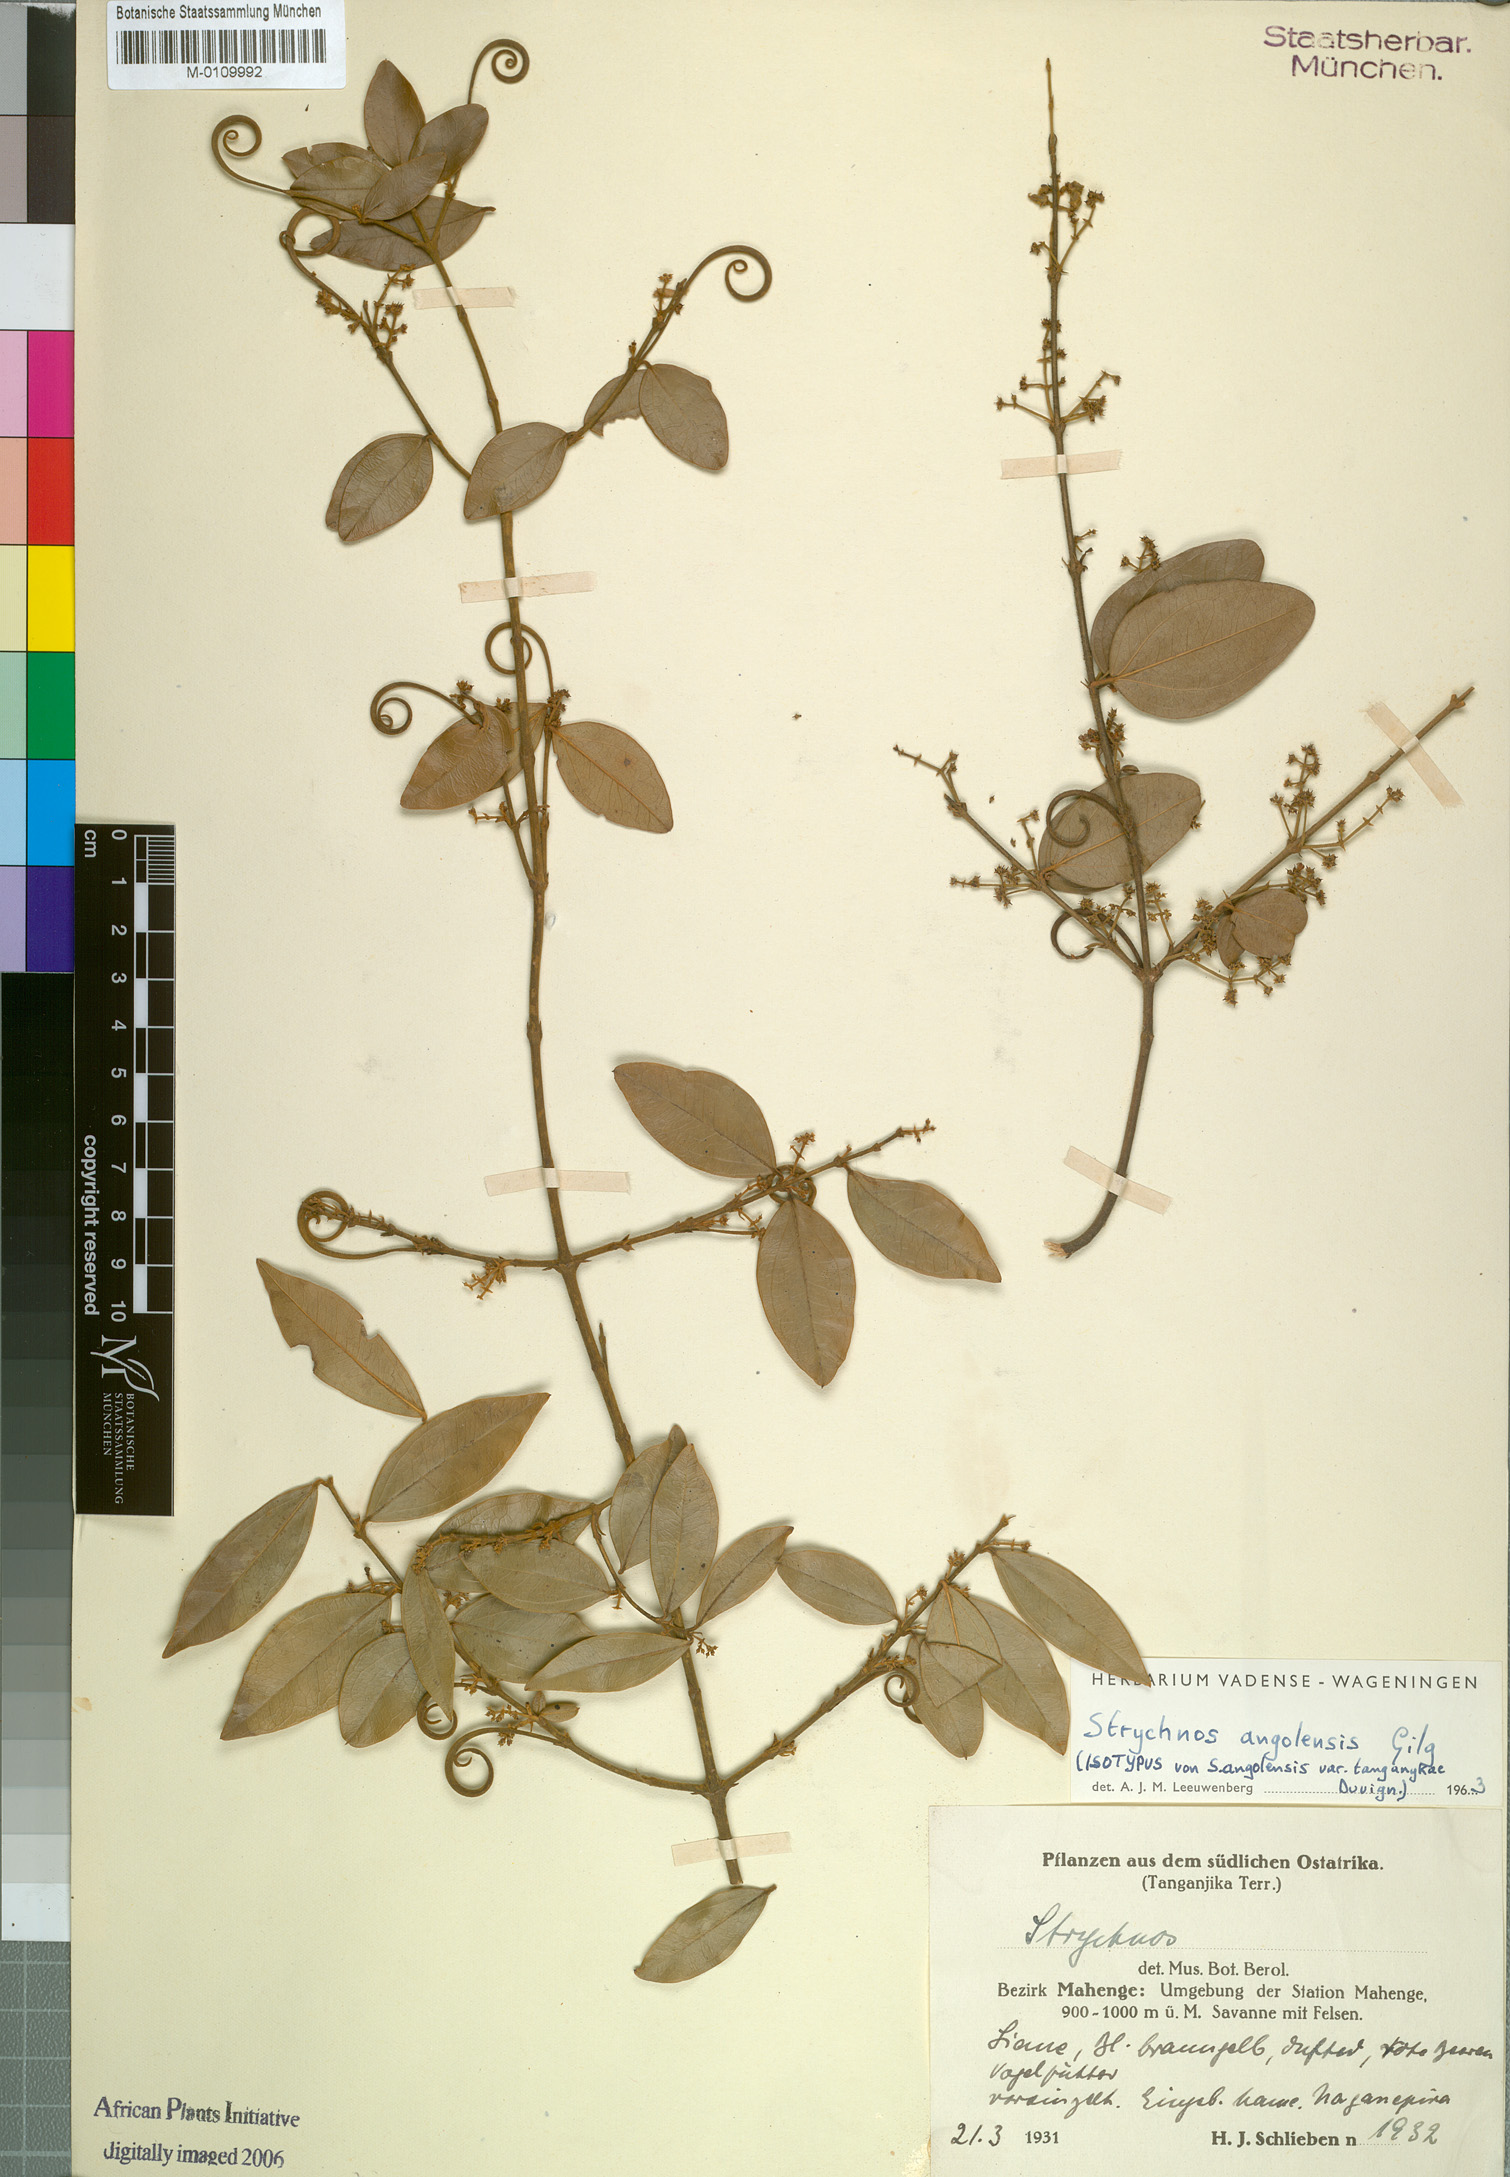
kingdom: Plantae
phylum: Tracheophyta
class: Magnoliopsida
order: Gentianales
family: Loganiaceae
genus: Strychnos
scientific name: Strychnos angolensis
